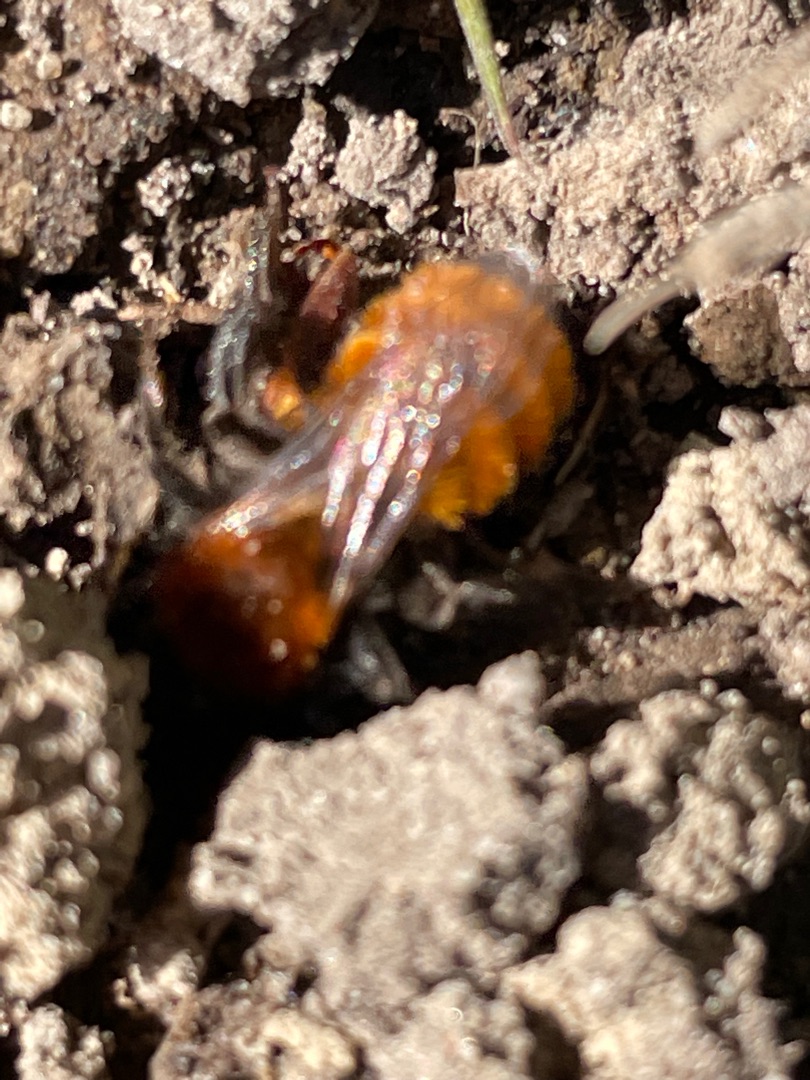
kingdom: Animalia
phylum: Arthropoda
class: Insecta
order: Hymenoptera
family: Andrenidae
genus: Andrena
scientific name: Andrena fulva
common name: Rødpelset jordbi
